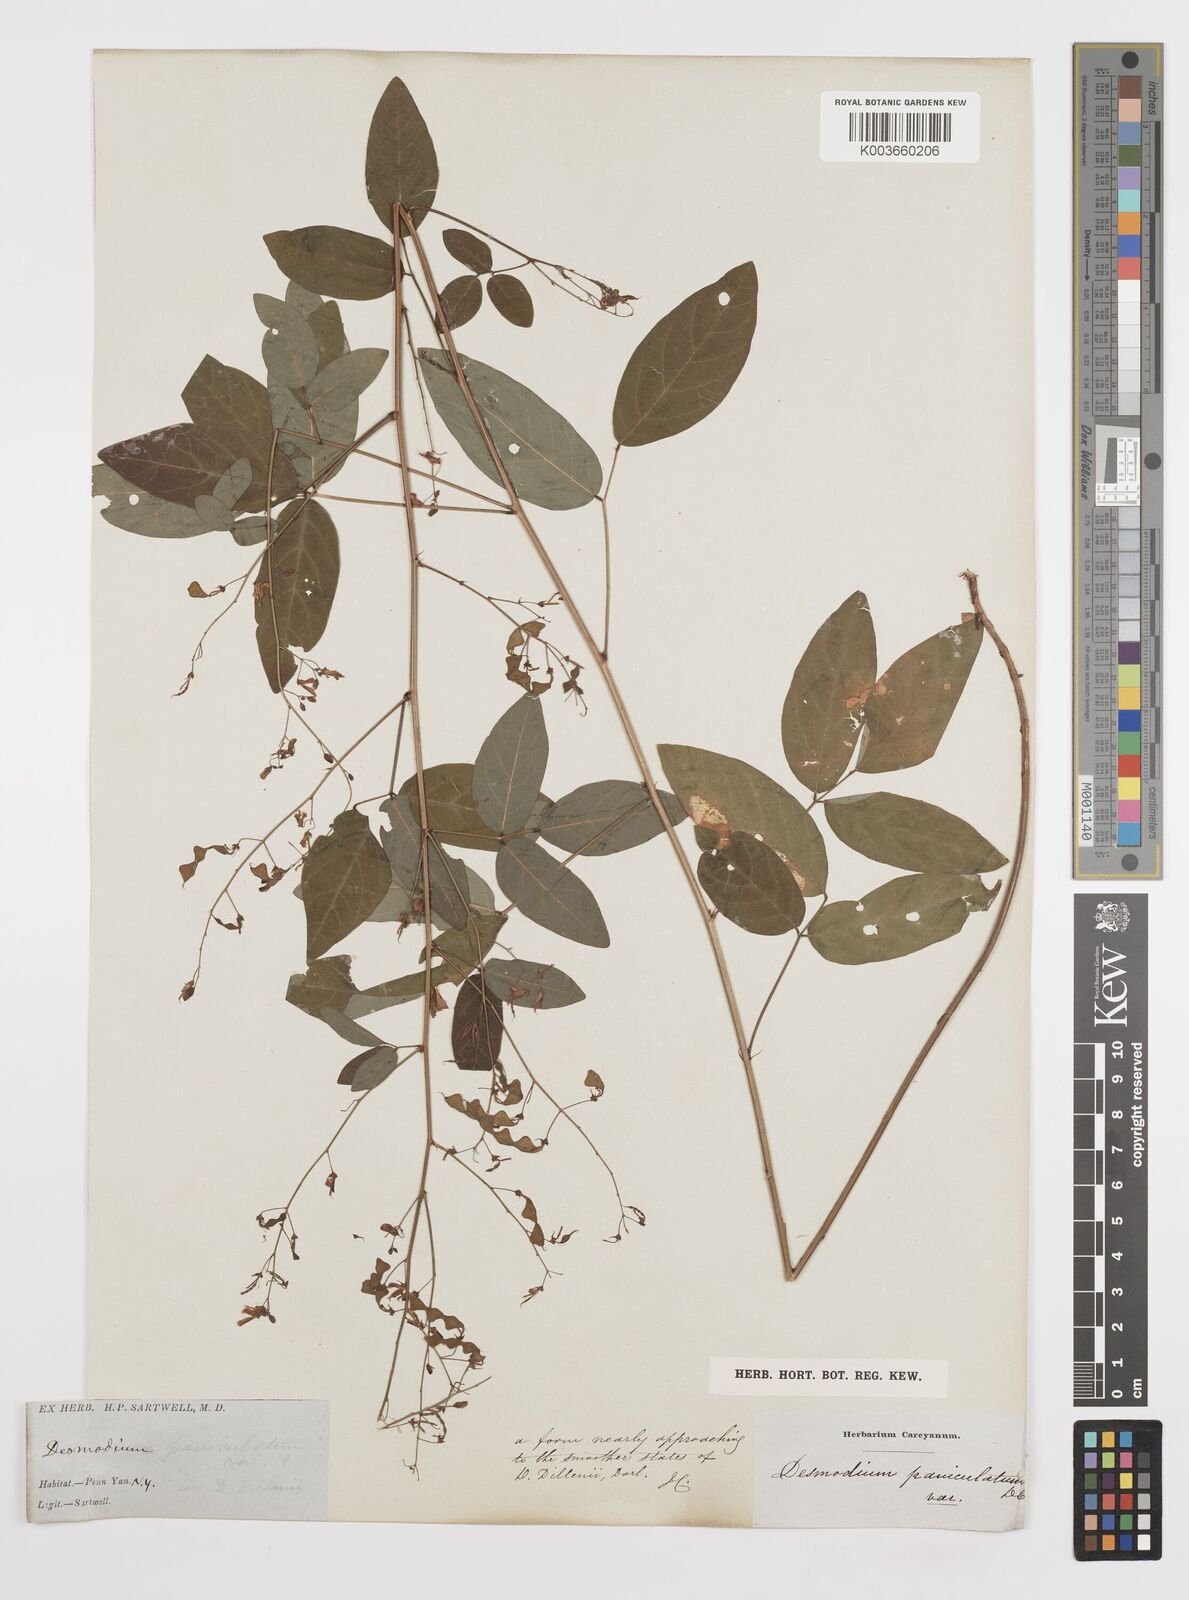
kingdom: Plantae
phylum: Tracheophyta
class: Magnoliopsida
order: Fabales
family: Fabaceae
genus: Desmodium
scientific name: Desmodium paniculatum
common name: Panicled tick-clover
